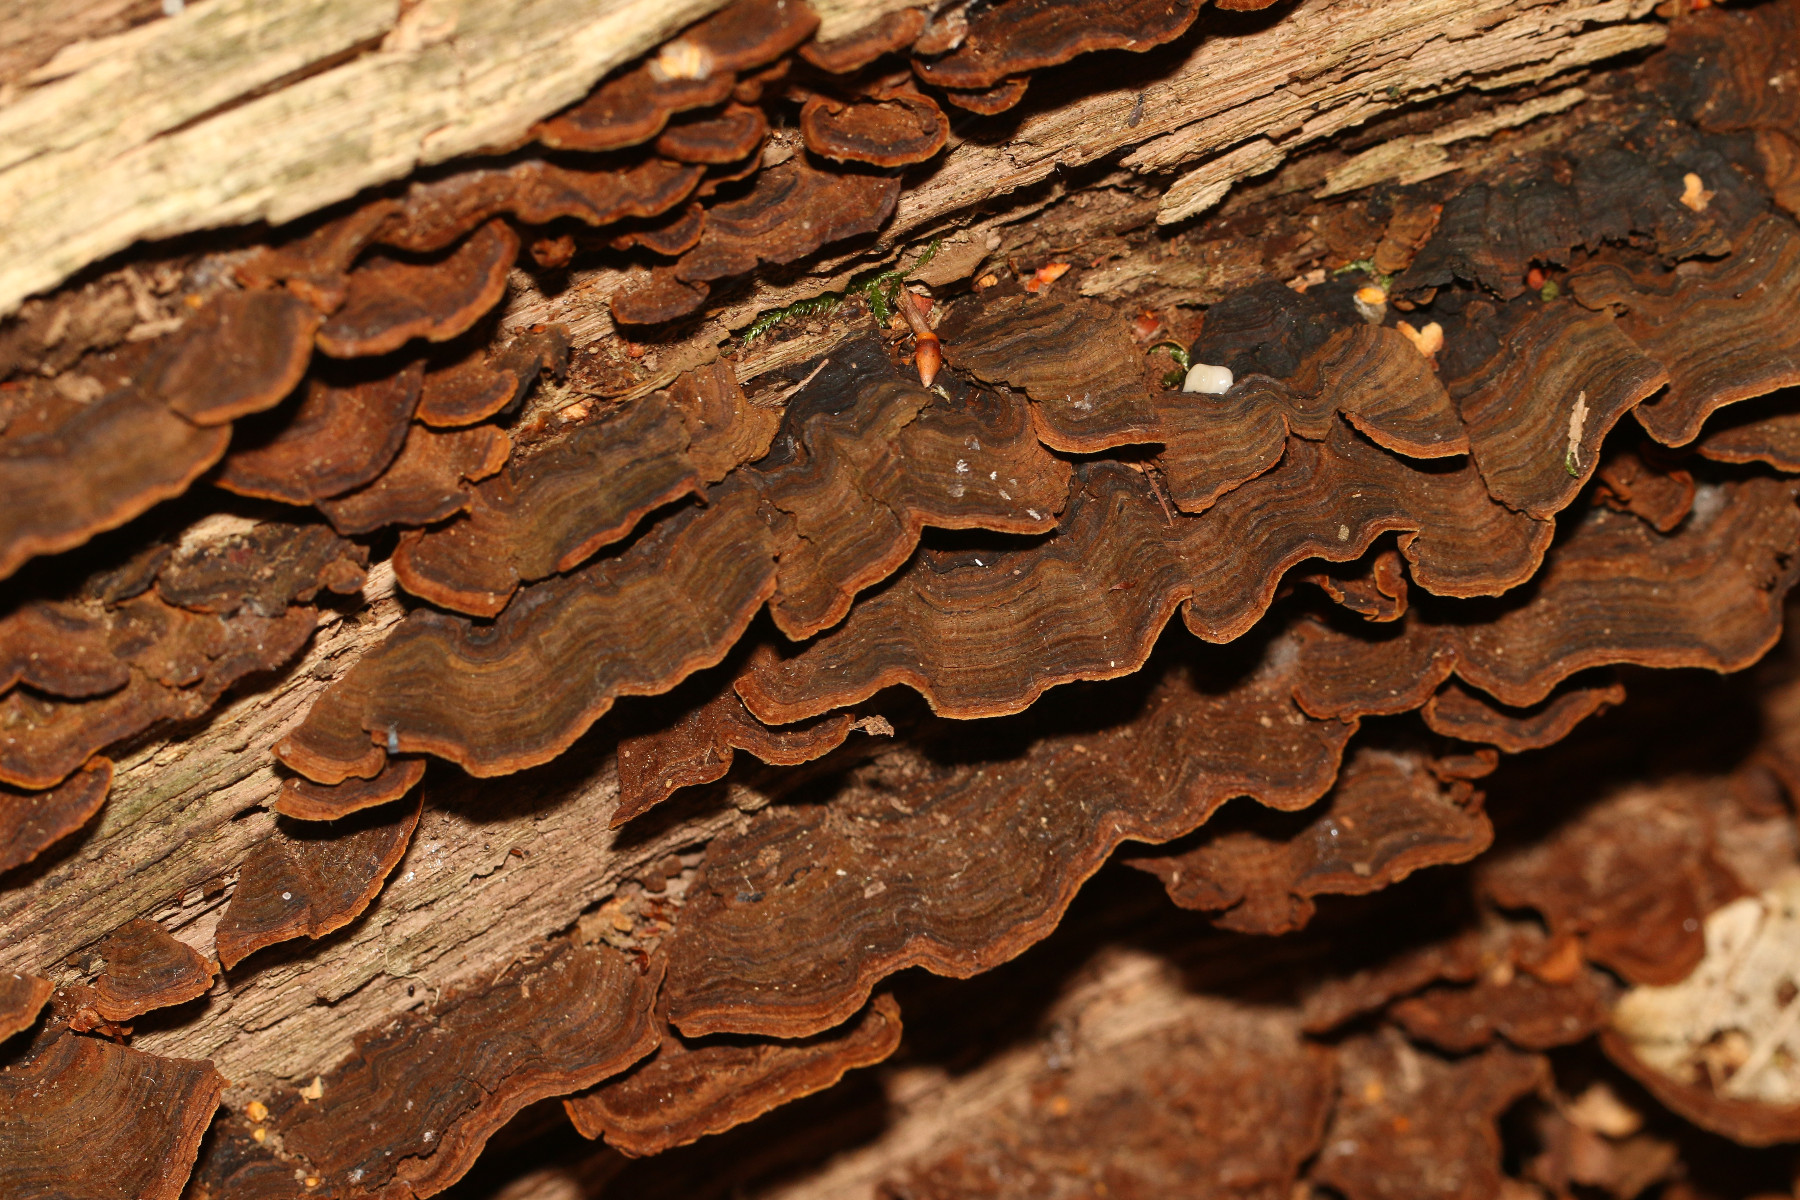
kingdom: Fungi
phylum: Basidiomycota
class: Agaricomycetes
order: Hymenochaetales
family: Hymenochaetaceae
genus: Hymenochaete
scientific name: Hymenochaete rubiginosa
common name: stiv ruslædersvamp
